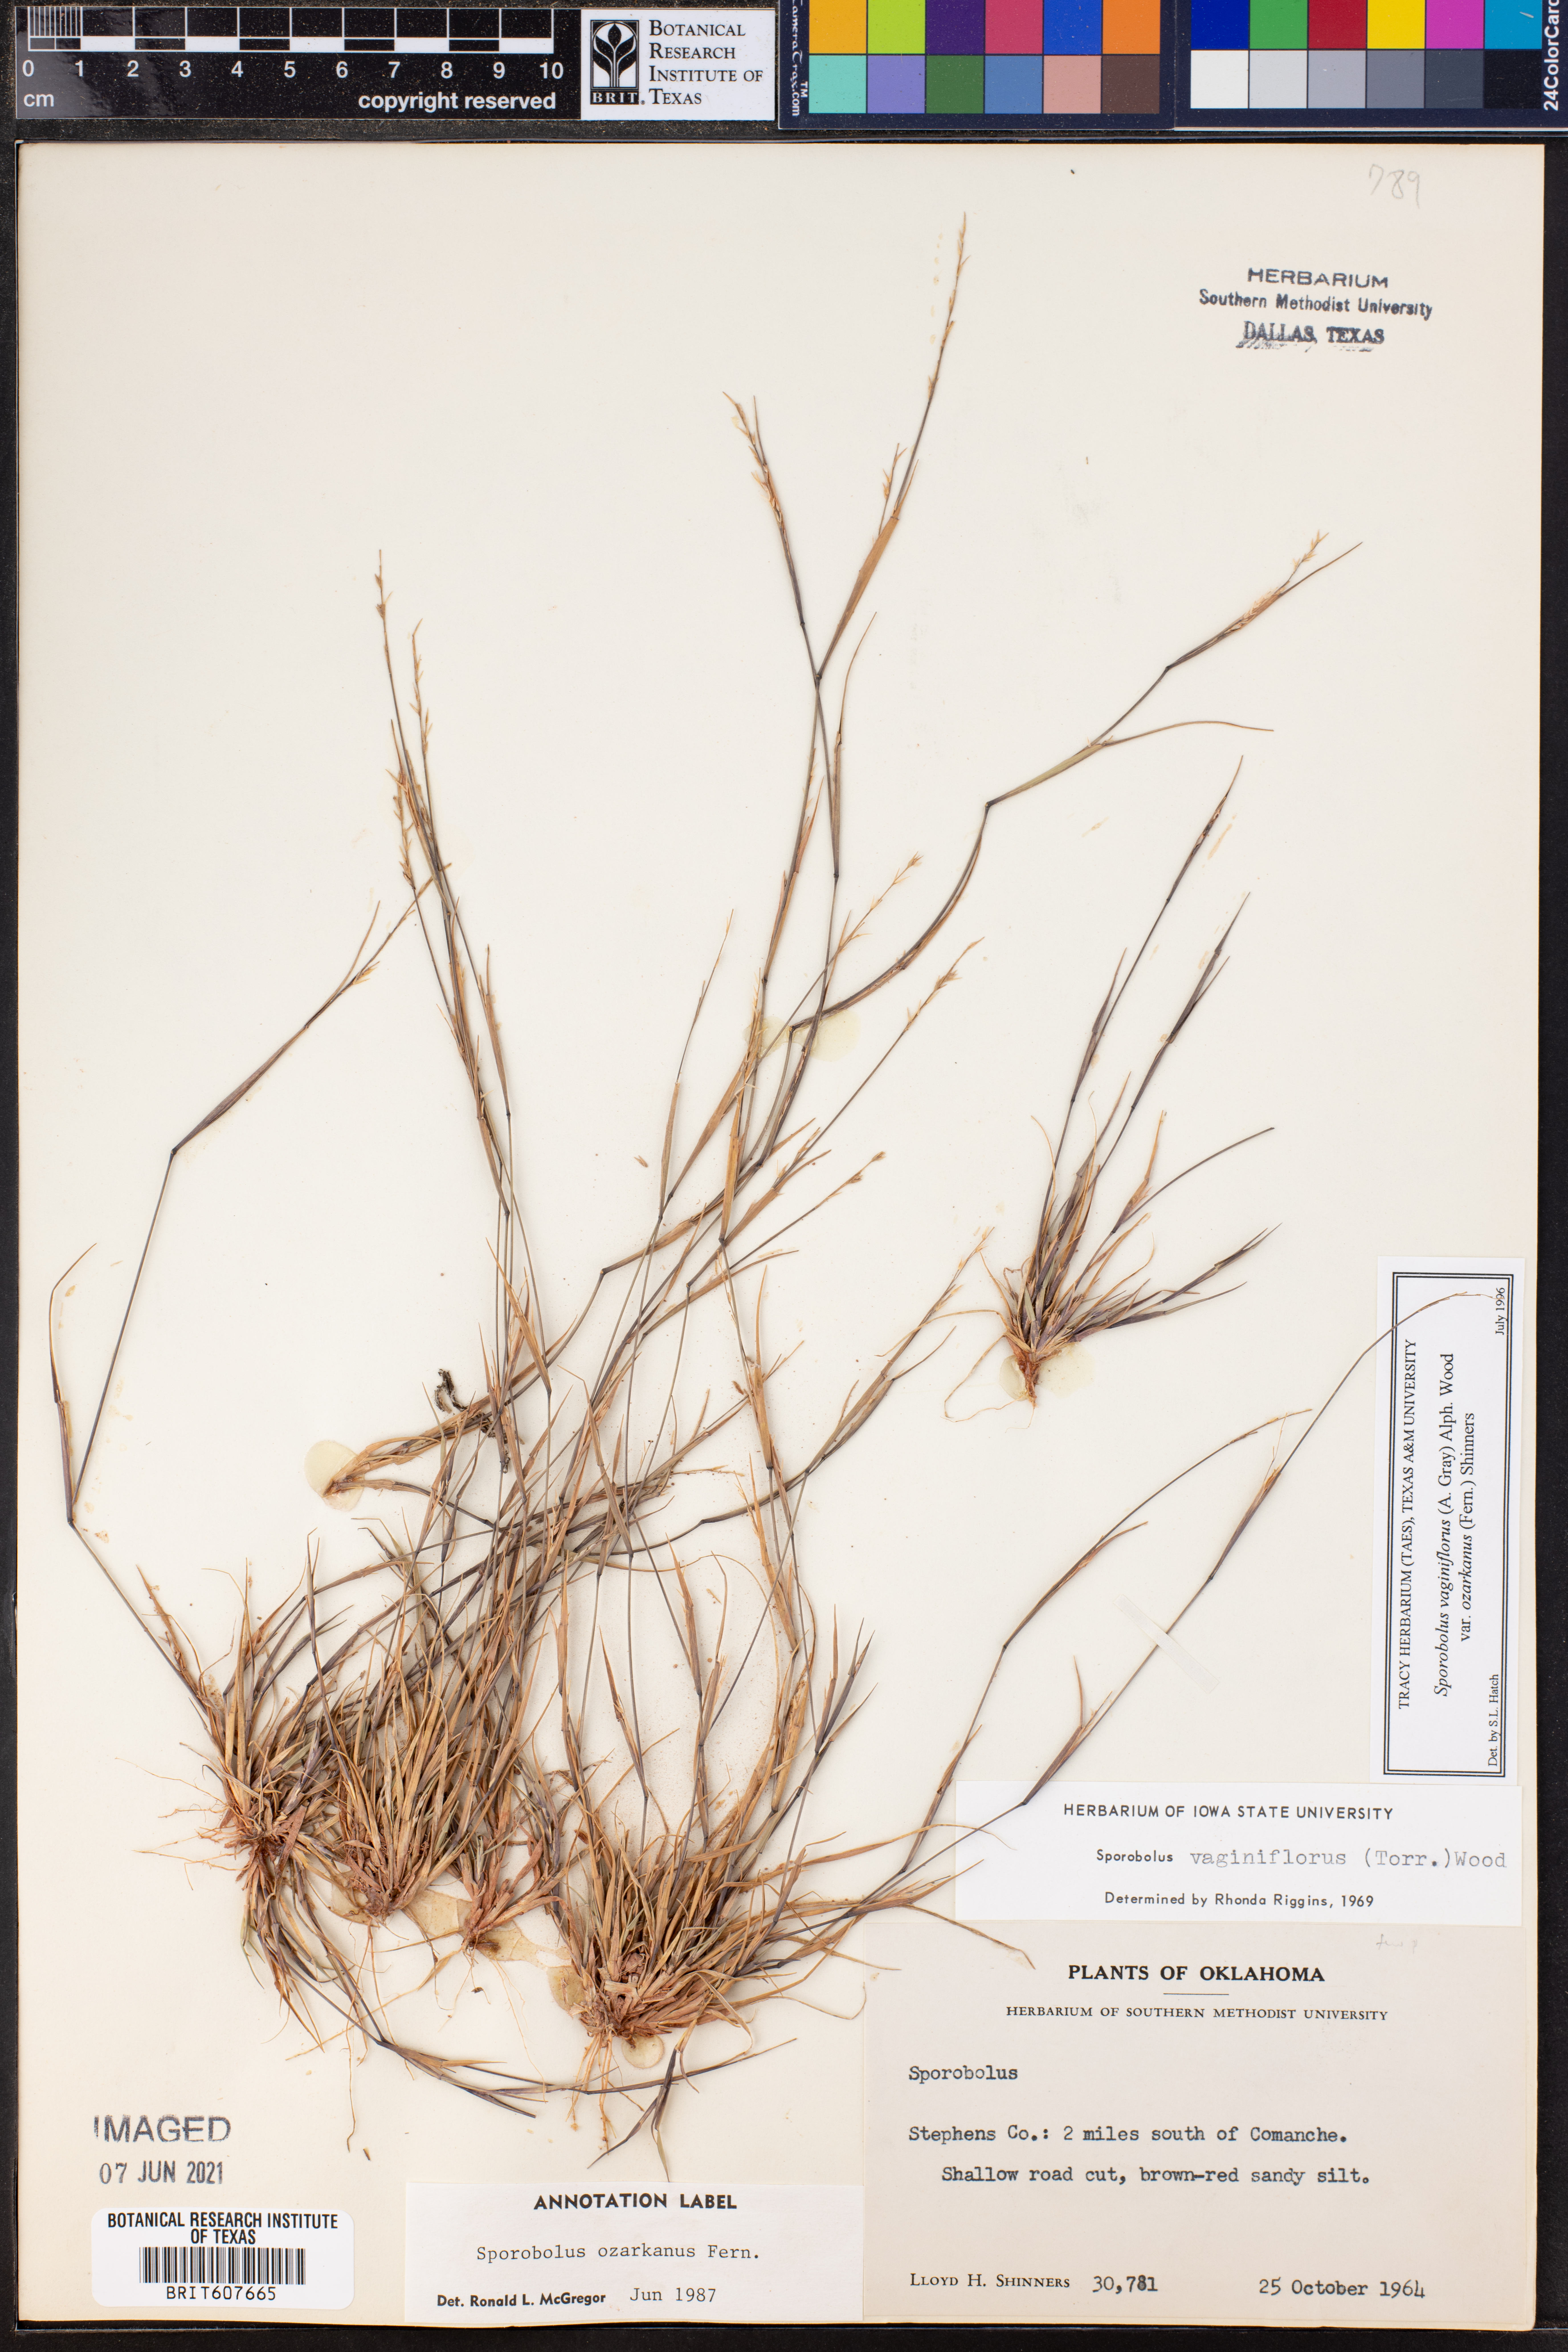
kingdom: Plantae
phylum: Tracheophyta
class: Liliopsida
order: Poales
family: Poaceae
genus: Sporobolus
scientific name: Sporobolus neglectus
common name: Annual dropseed
